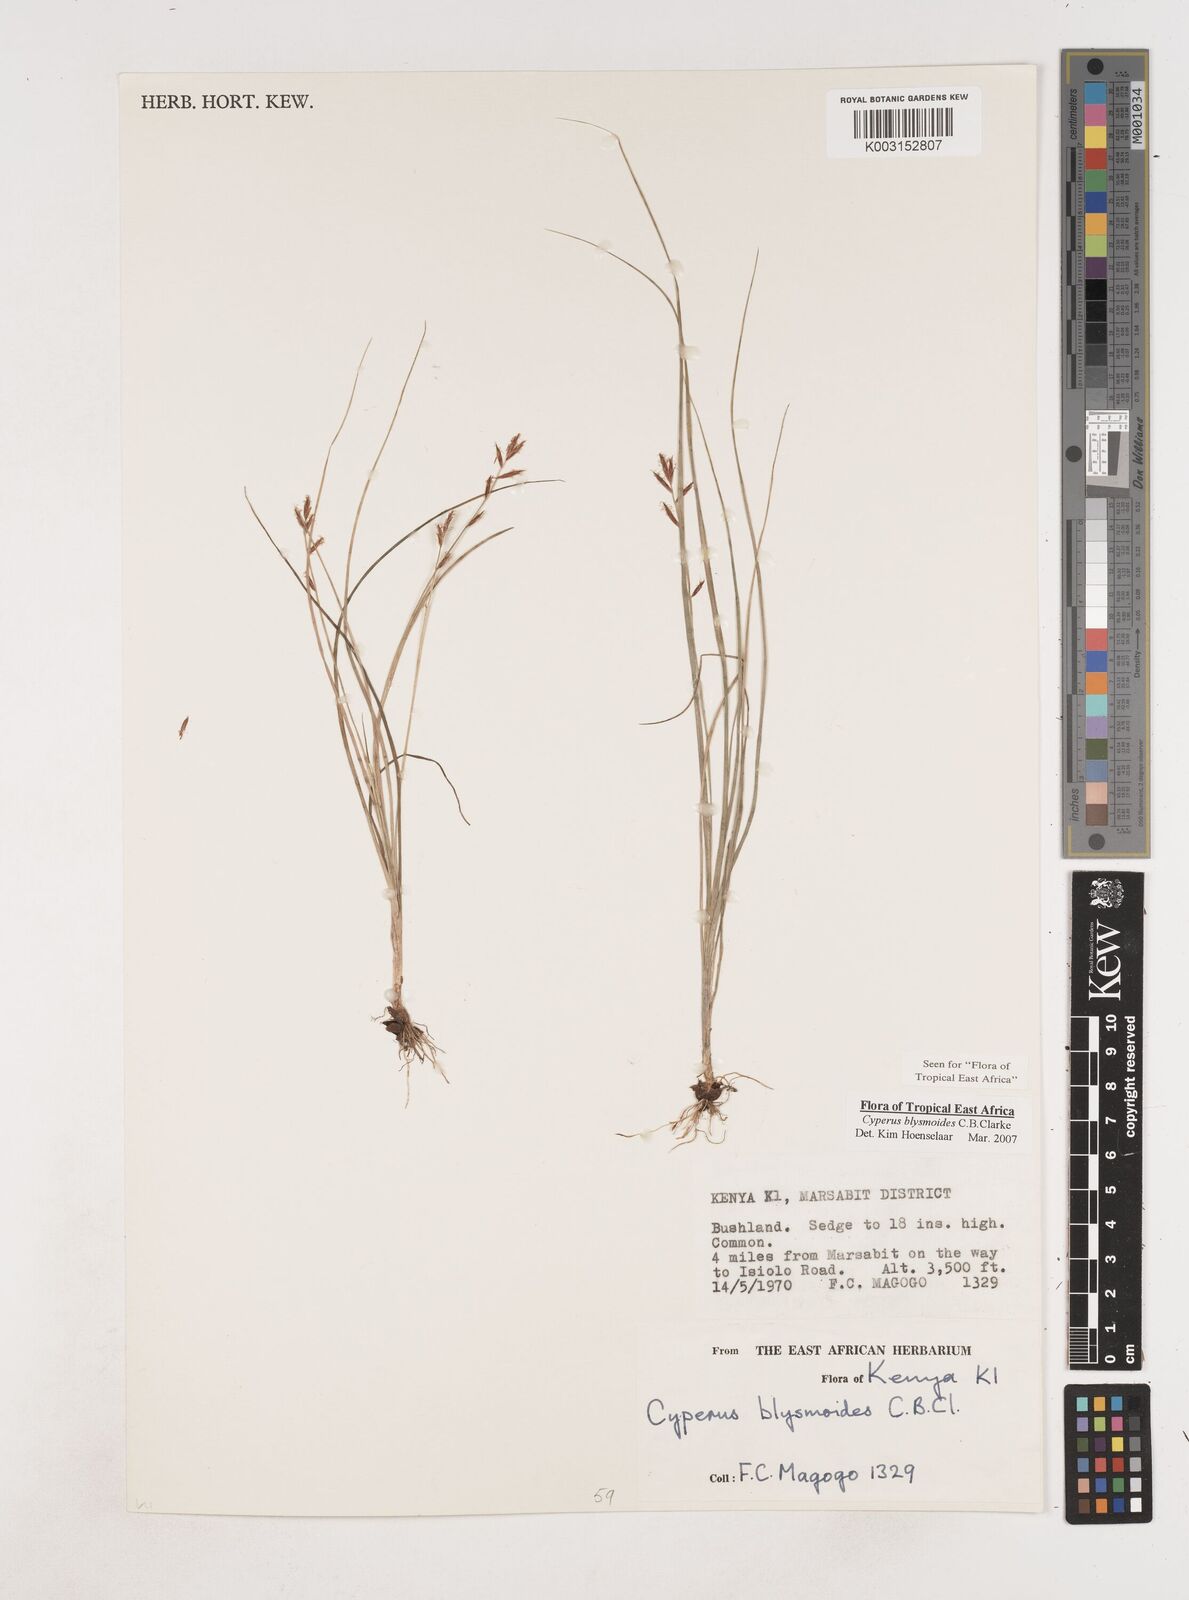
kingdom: Plantae
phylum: Tracheophyta
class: Liliopsida
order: Poales
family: Cyperaceae
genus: Cyperus
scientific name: Cyperus blysmoides
